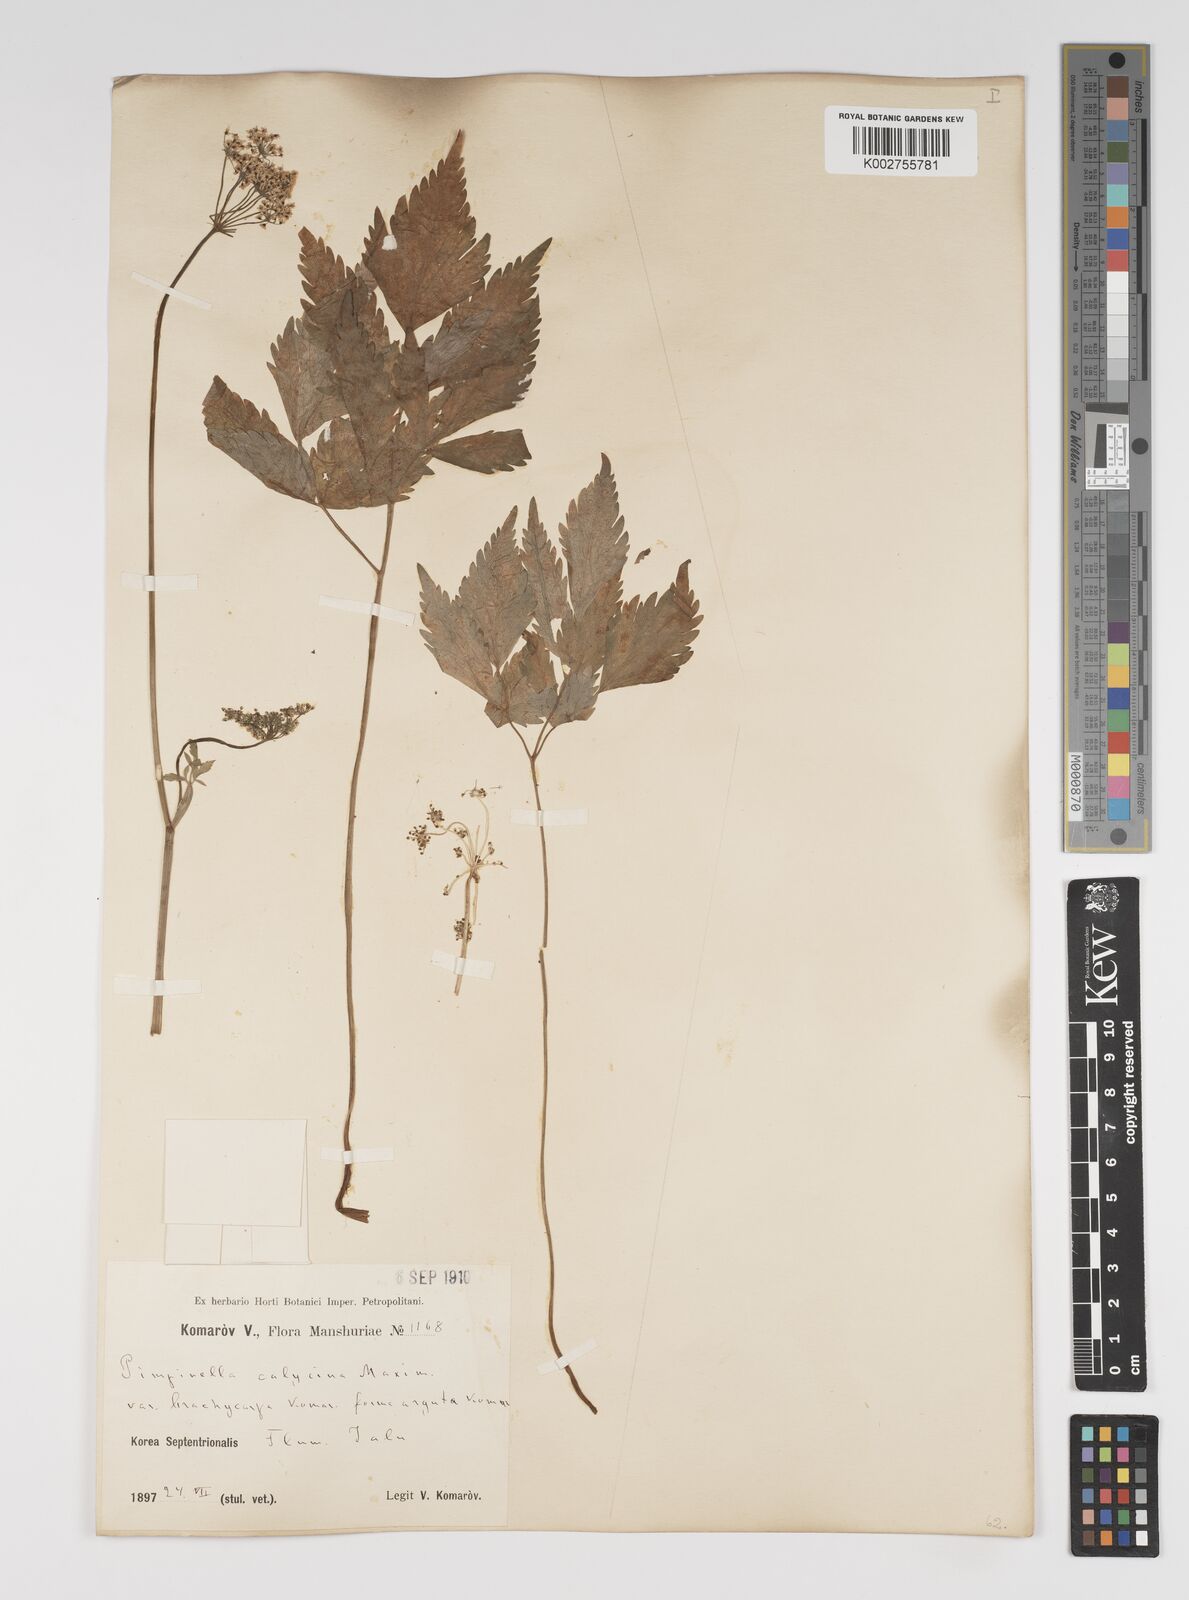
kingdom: Plantae
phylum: Tracheophyta
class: Magnoliopsida
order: Apiales
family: Apiaceae
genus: Spuriopimpinella
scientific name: Spuriopimpinella calycina
